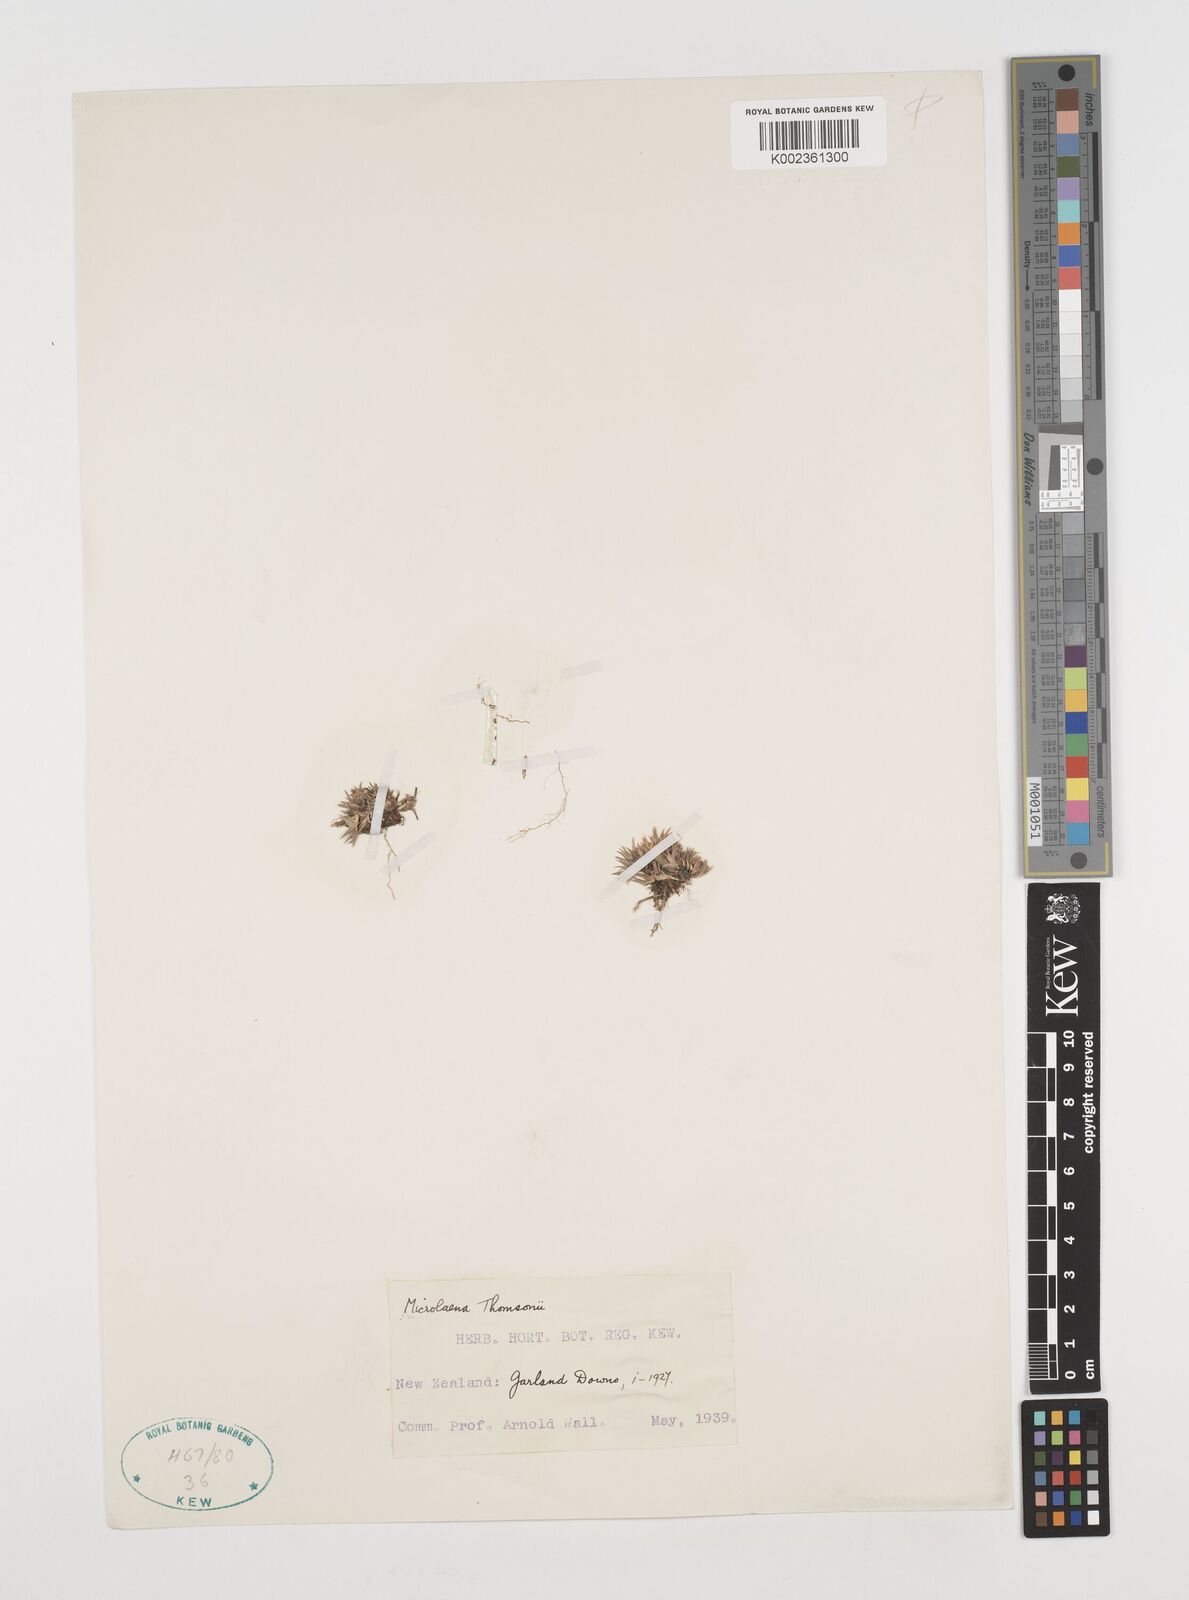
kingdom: Plantae
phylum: Tracheophyta
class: Liliopsida
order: Poales
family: Poaceae
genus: Zotovia
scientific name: Zotovia thomsonii
